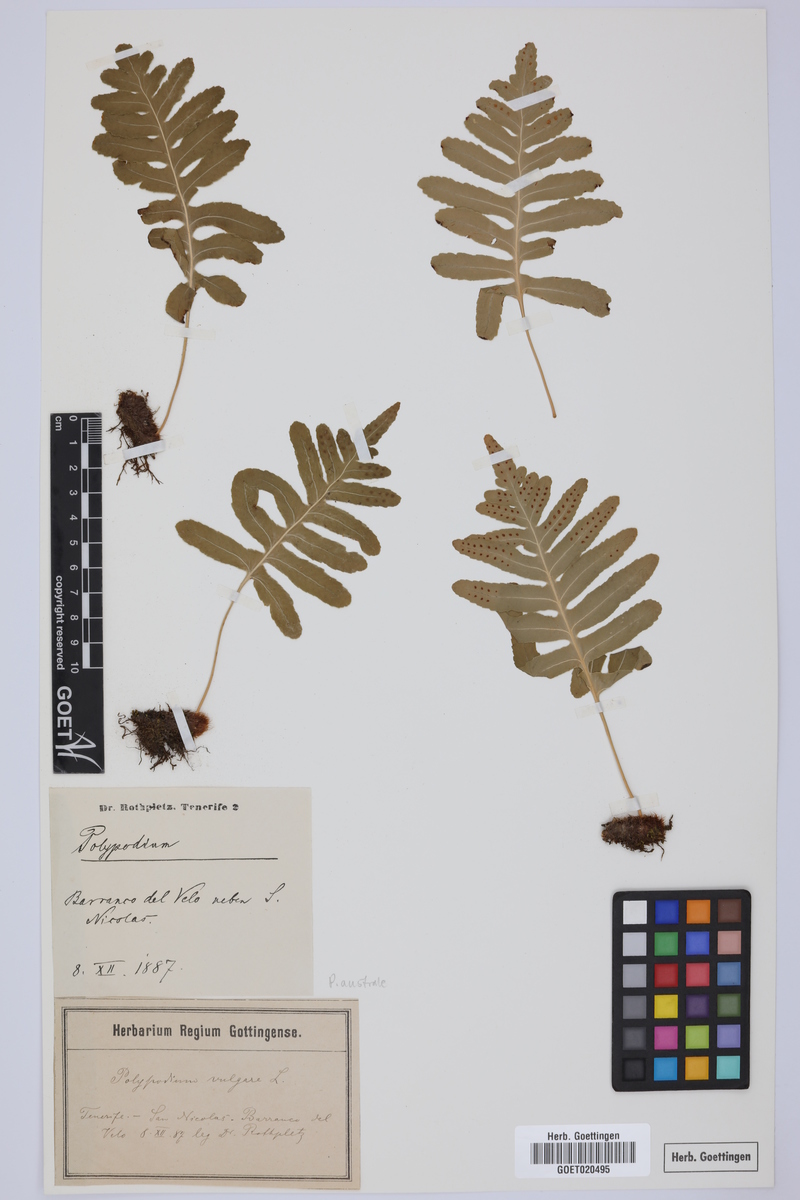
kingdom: Plantae
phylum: Tracheophyta
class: Polypodiopsida
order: Polypodiales
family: Polypodiaceae
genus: Notogrammitis
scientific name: Notogrammitis billardierei
